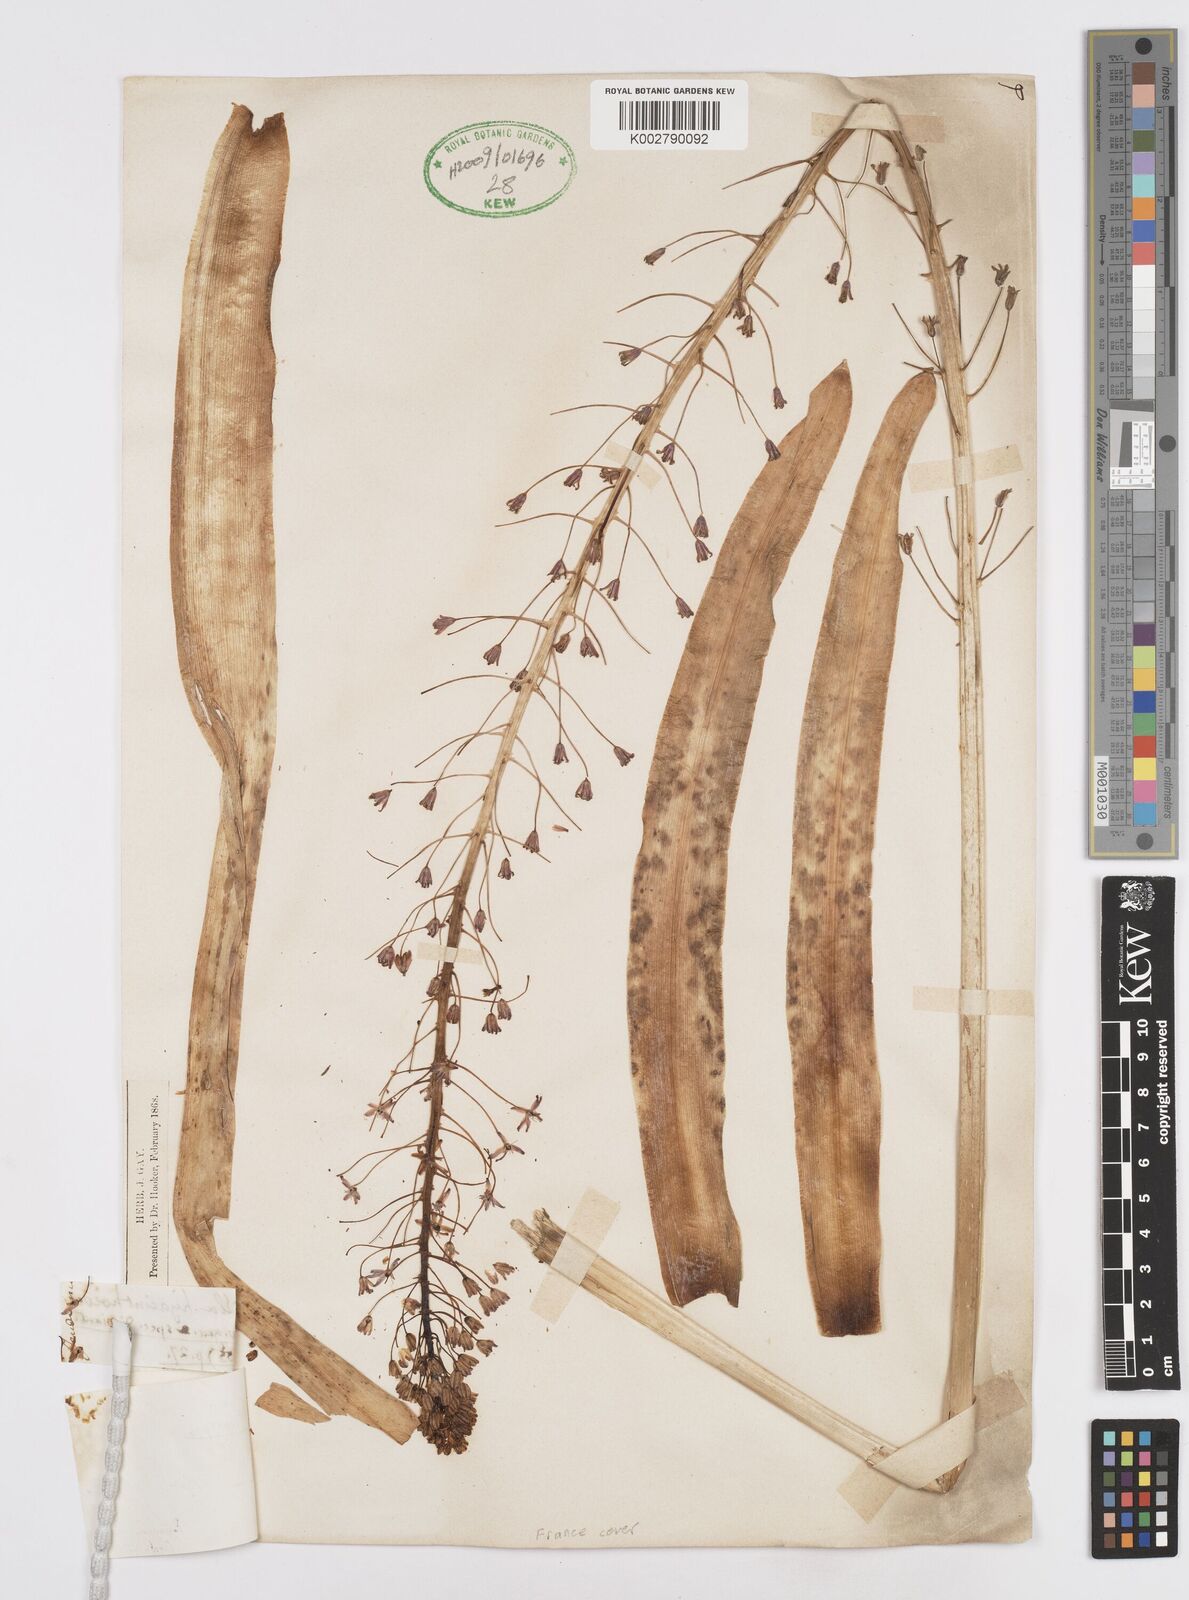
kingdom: Plantae
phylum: Tracheophyta
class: Liliopsida
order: Asparagales
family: Asparagaceae
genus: Scilla
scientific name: Scilla hyacinthoides
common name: Scilla
